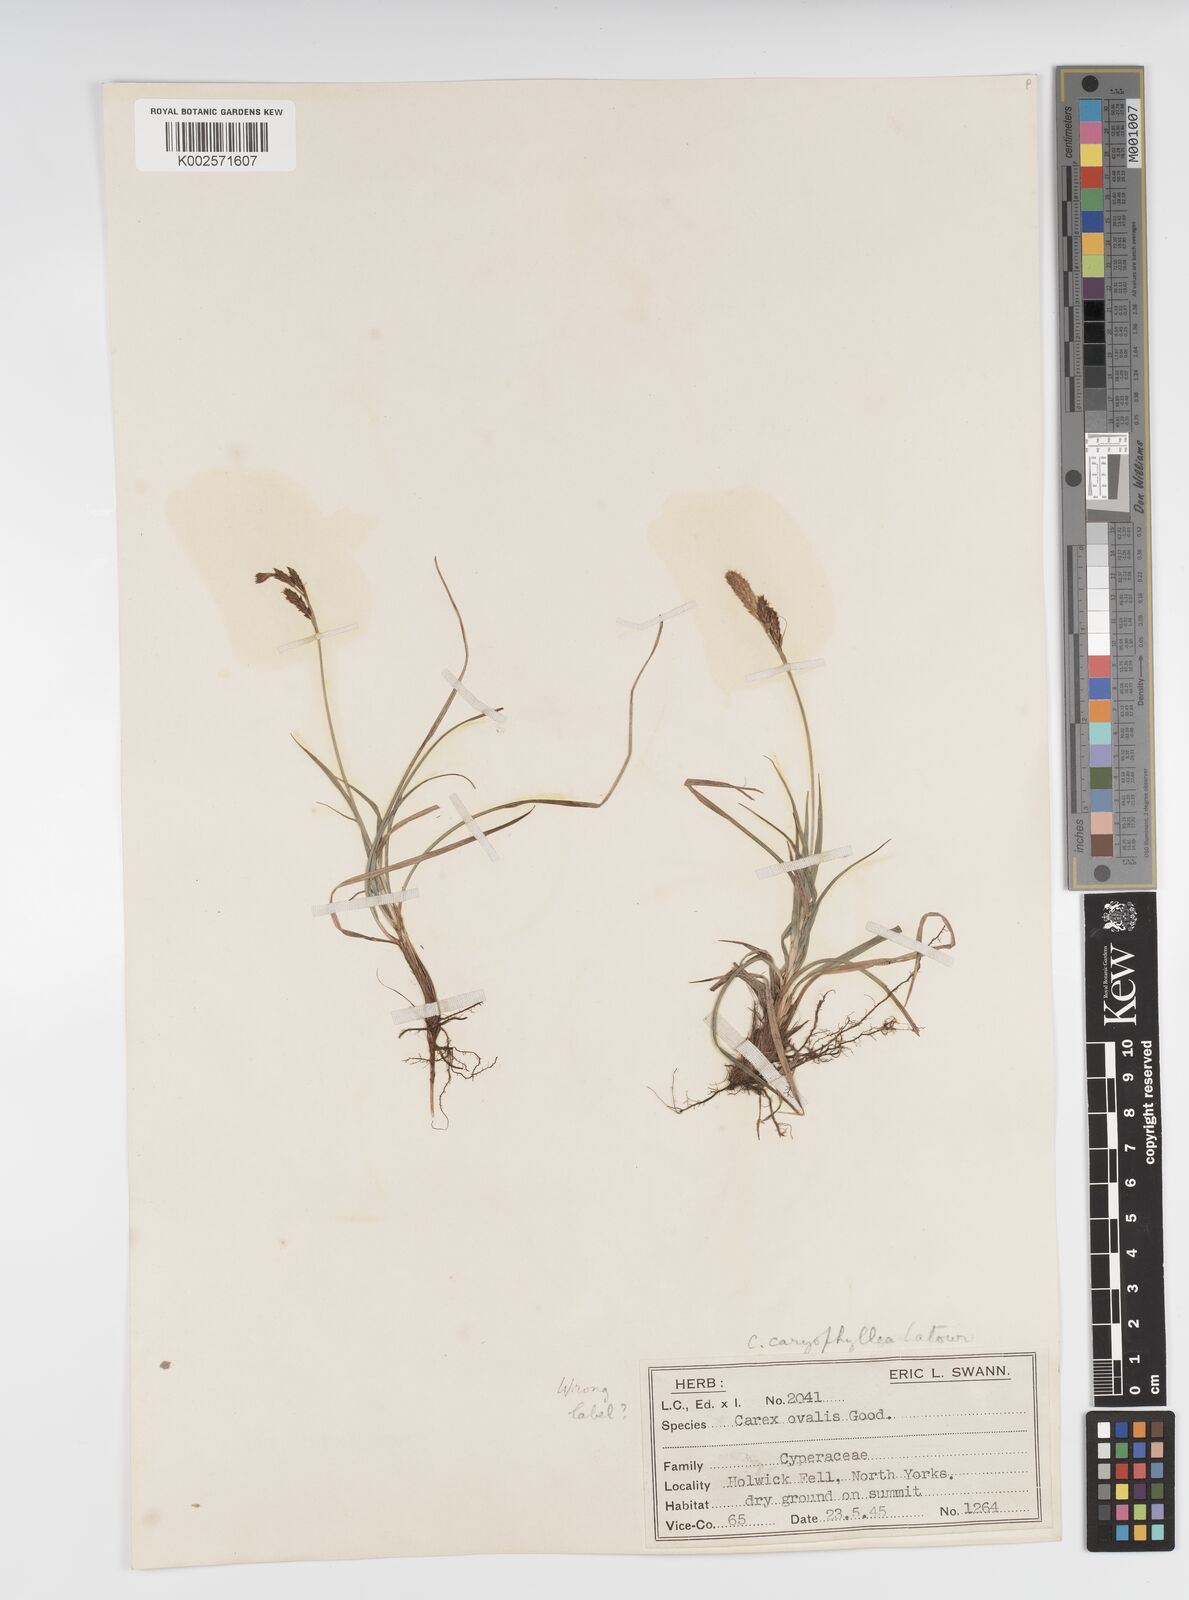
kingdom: Plantae
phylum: Tracheophyta
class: Liliopsida
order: Poales
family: Cyperaceae
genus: Carex
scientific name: Carex caryophyllea
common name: Spring sedge
